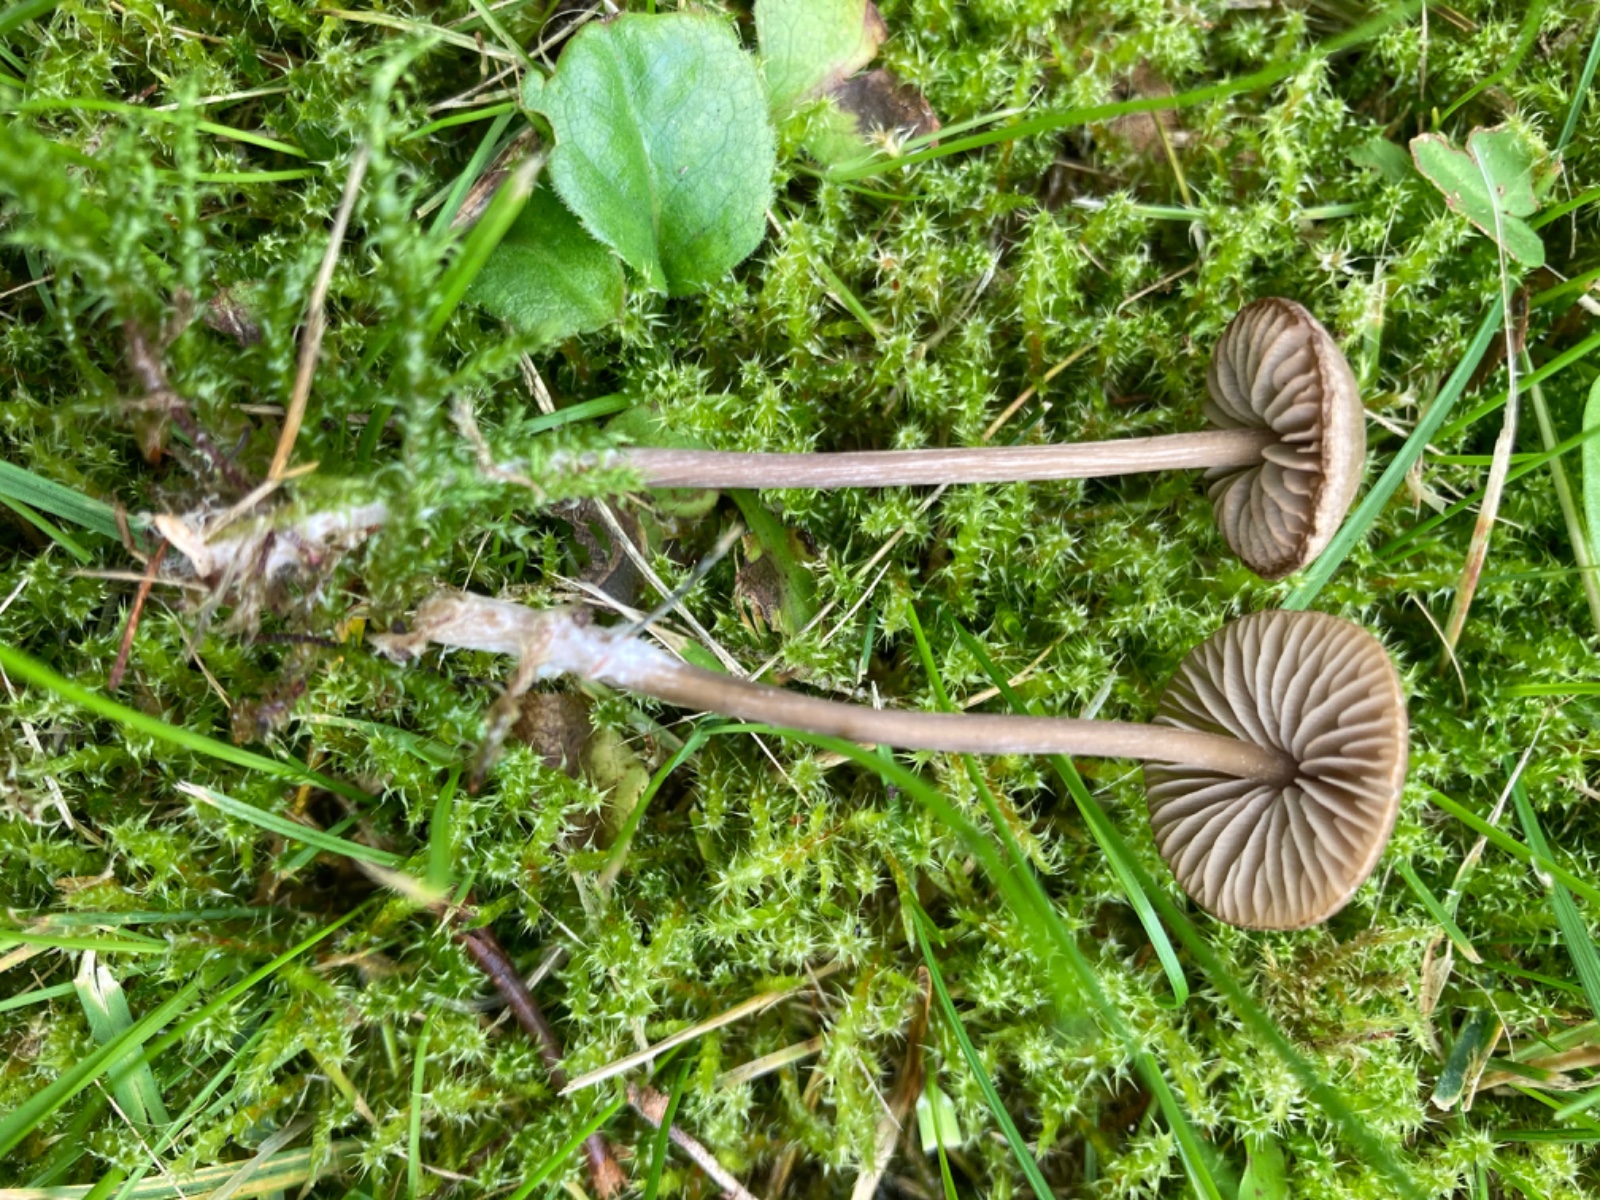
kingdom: Fungi
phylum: Basidiomycota
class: Agaricomycetes
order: Agaricales
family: Entolomataceae
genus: Entoloma
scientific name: Entoloma minutum
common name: liden rødblad
